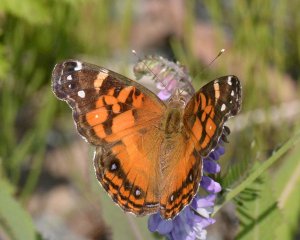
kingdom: Animalia
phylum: Arthropoda
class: Insecta
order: Lepidoptera
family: Nymphalidae
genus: Vanessa
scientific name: Vanessa virginiensis
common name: American Lady
